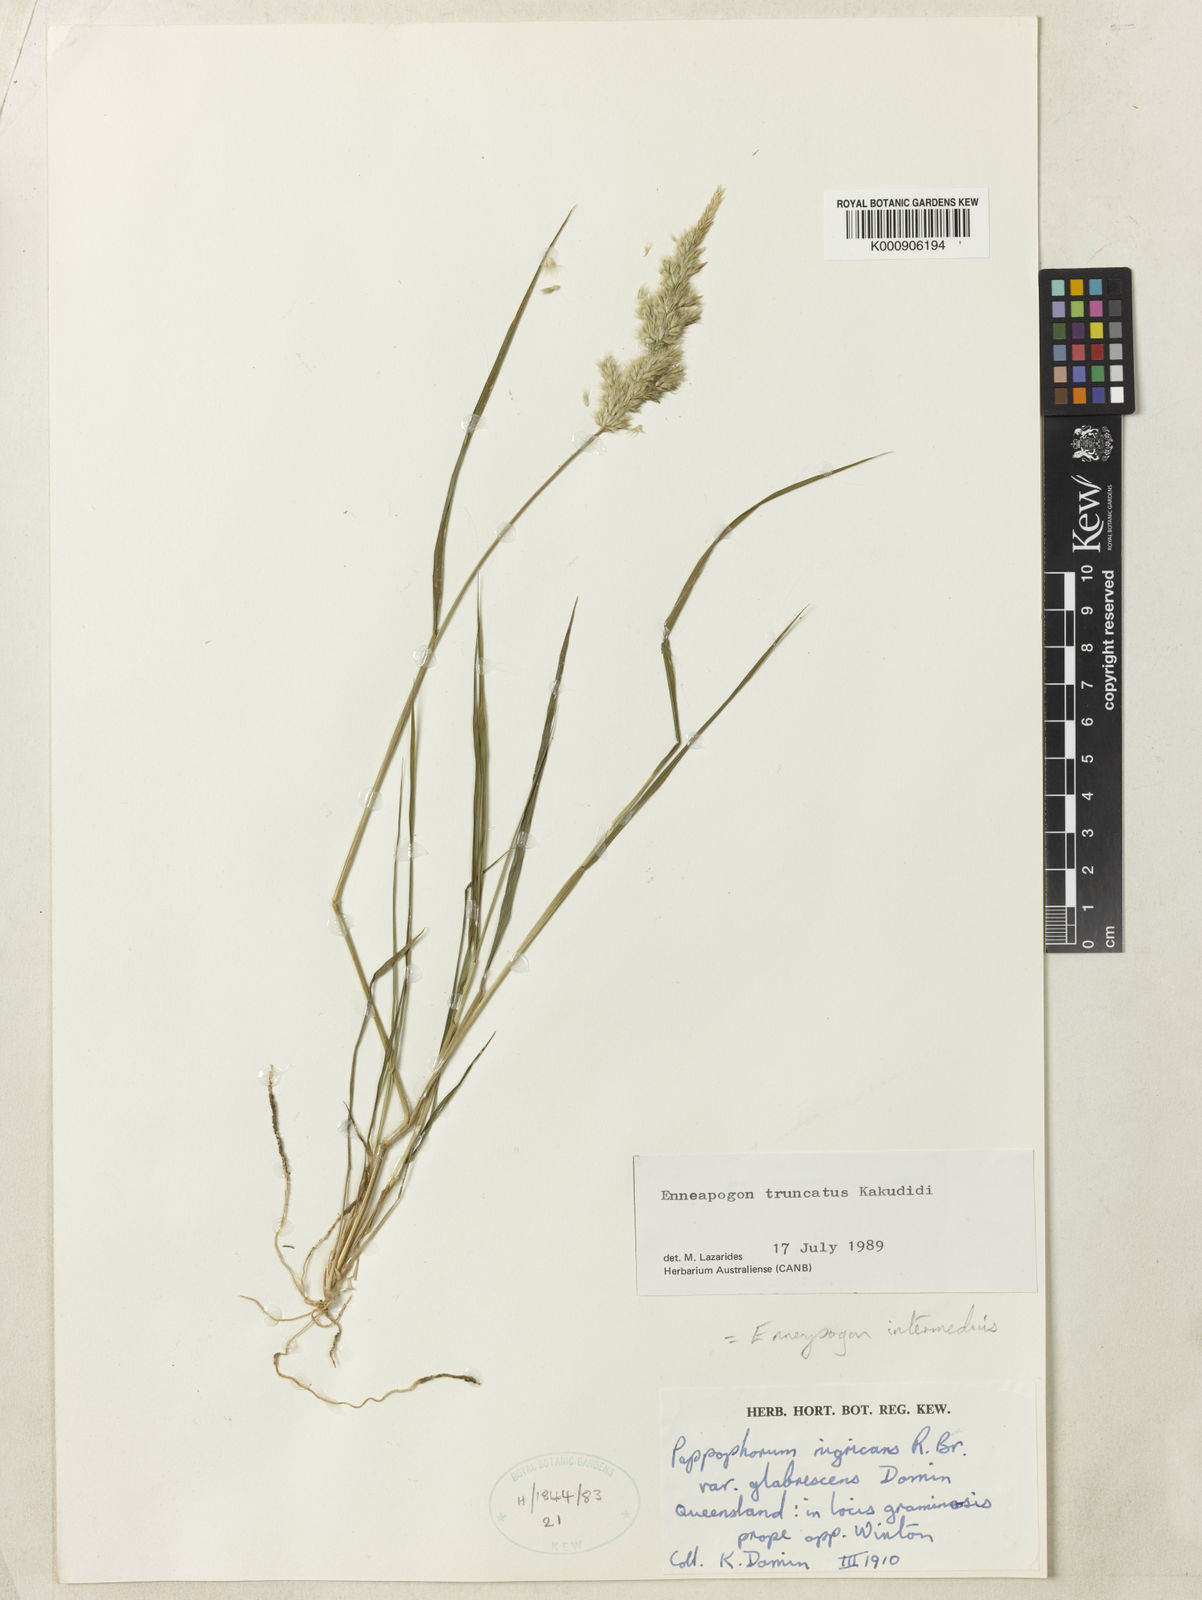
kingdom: Plantae
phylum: Tracheophyta
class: Liliopsida
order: Poales
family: Poaceae
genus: Enneapogon
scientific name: Enneapogon intermedius
